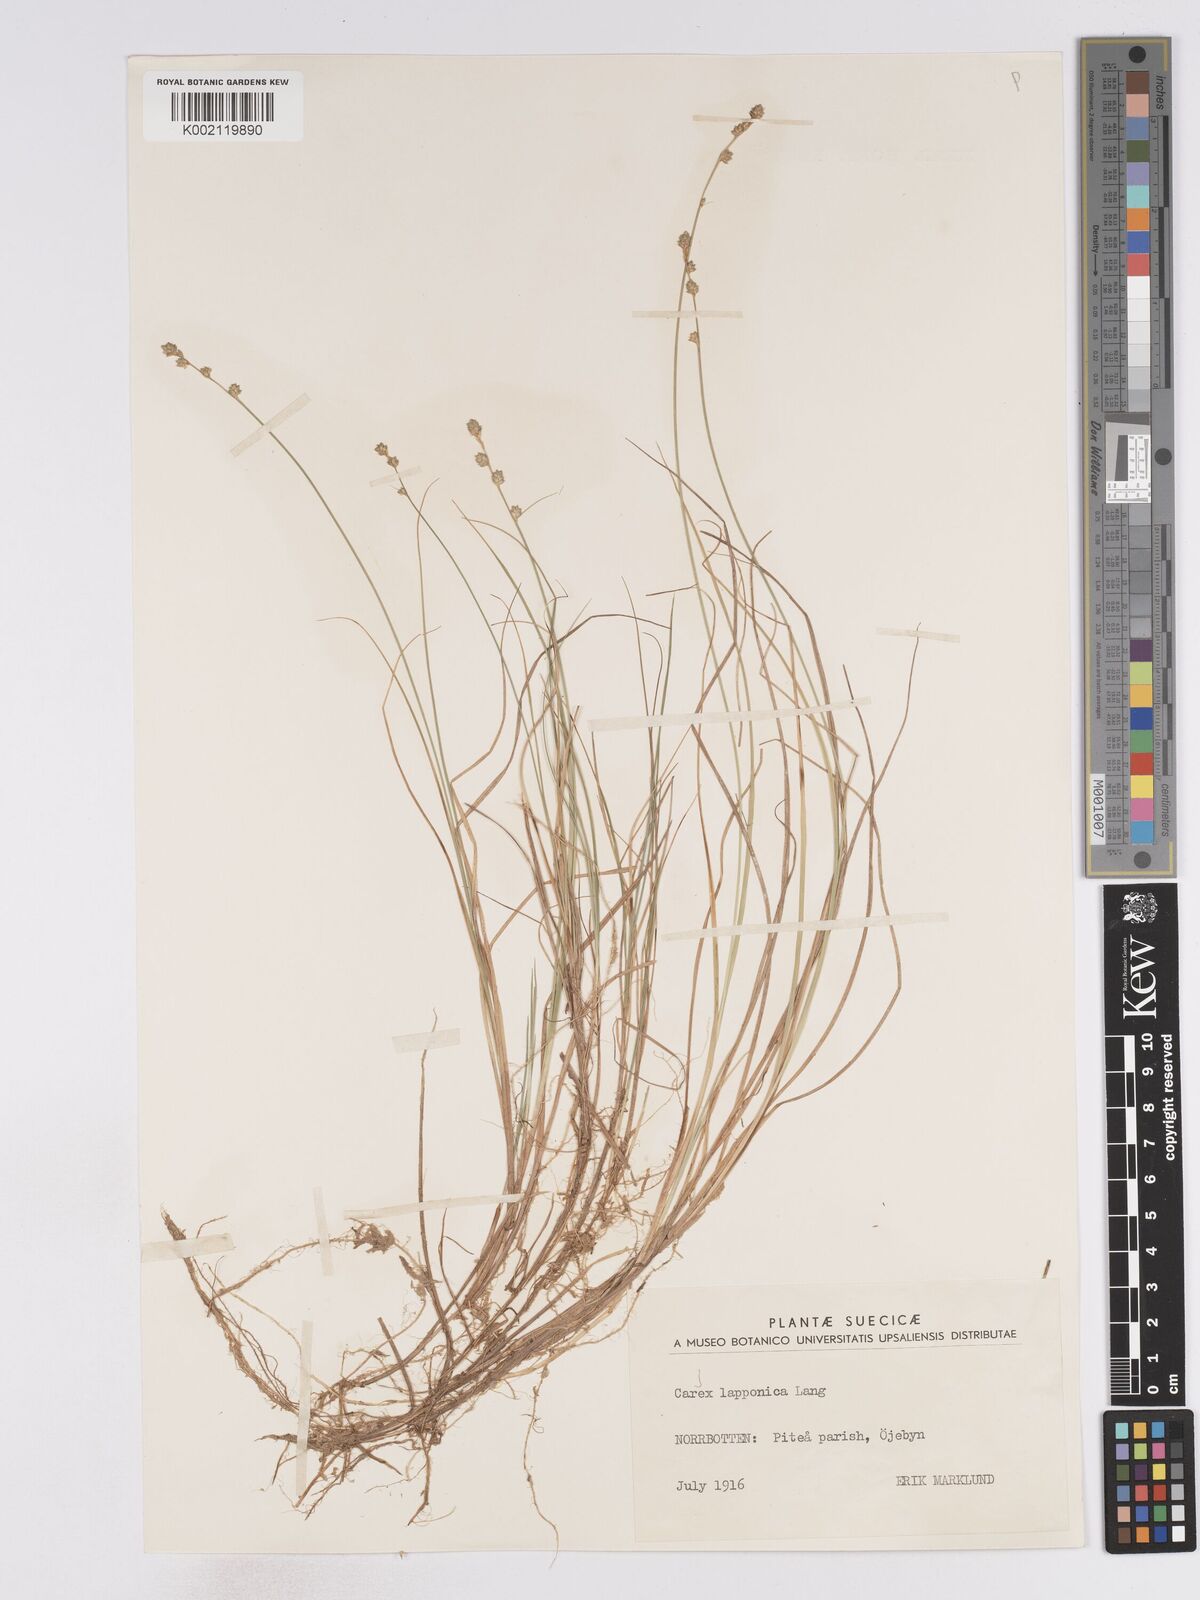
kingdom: Plantae
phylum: Tracheophyta
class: Liliopsida
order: Poales
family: Cyperaceae
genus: Carex
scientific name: Carex lapponica
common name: Lapland sedge
